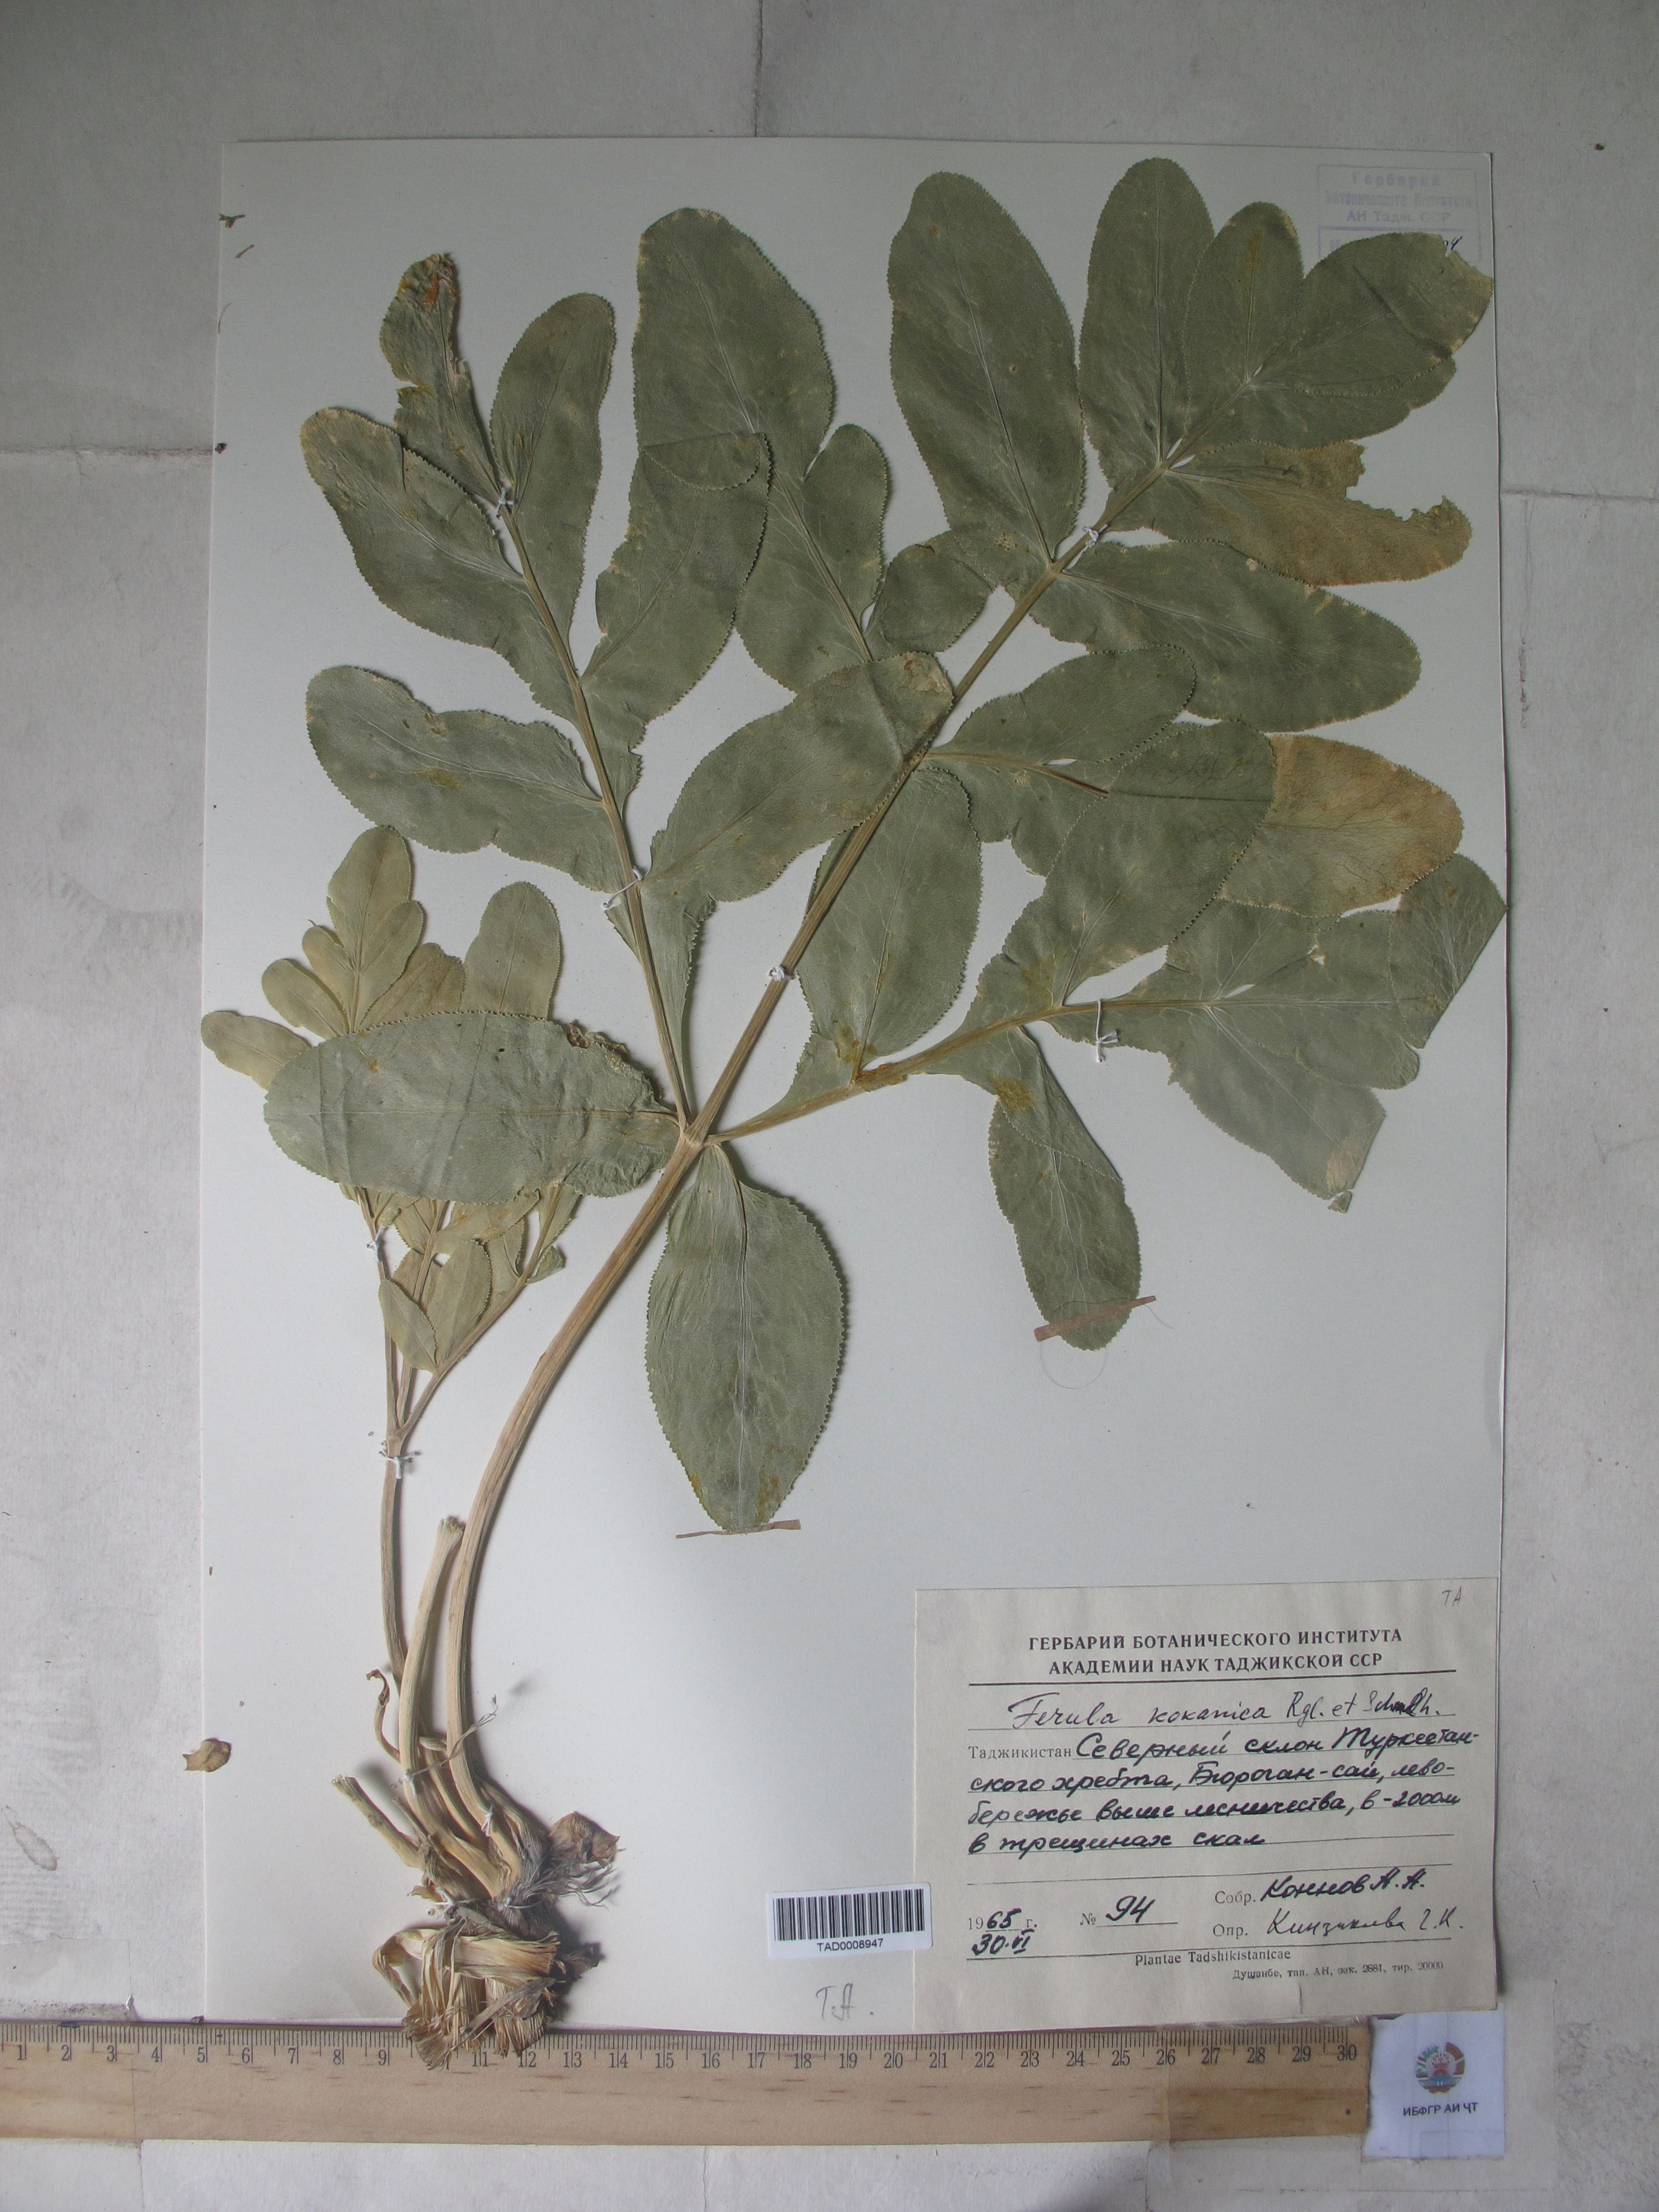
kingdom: Plantae
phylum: Tracheophyta
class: Magnoliopsida
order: Apiales
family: Apiaceae
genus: Ferula
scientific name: Ferula kokanica
